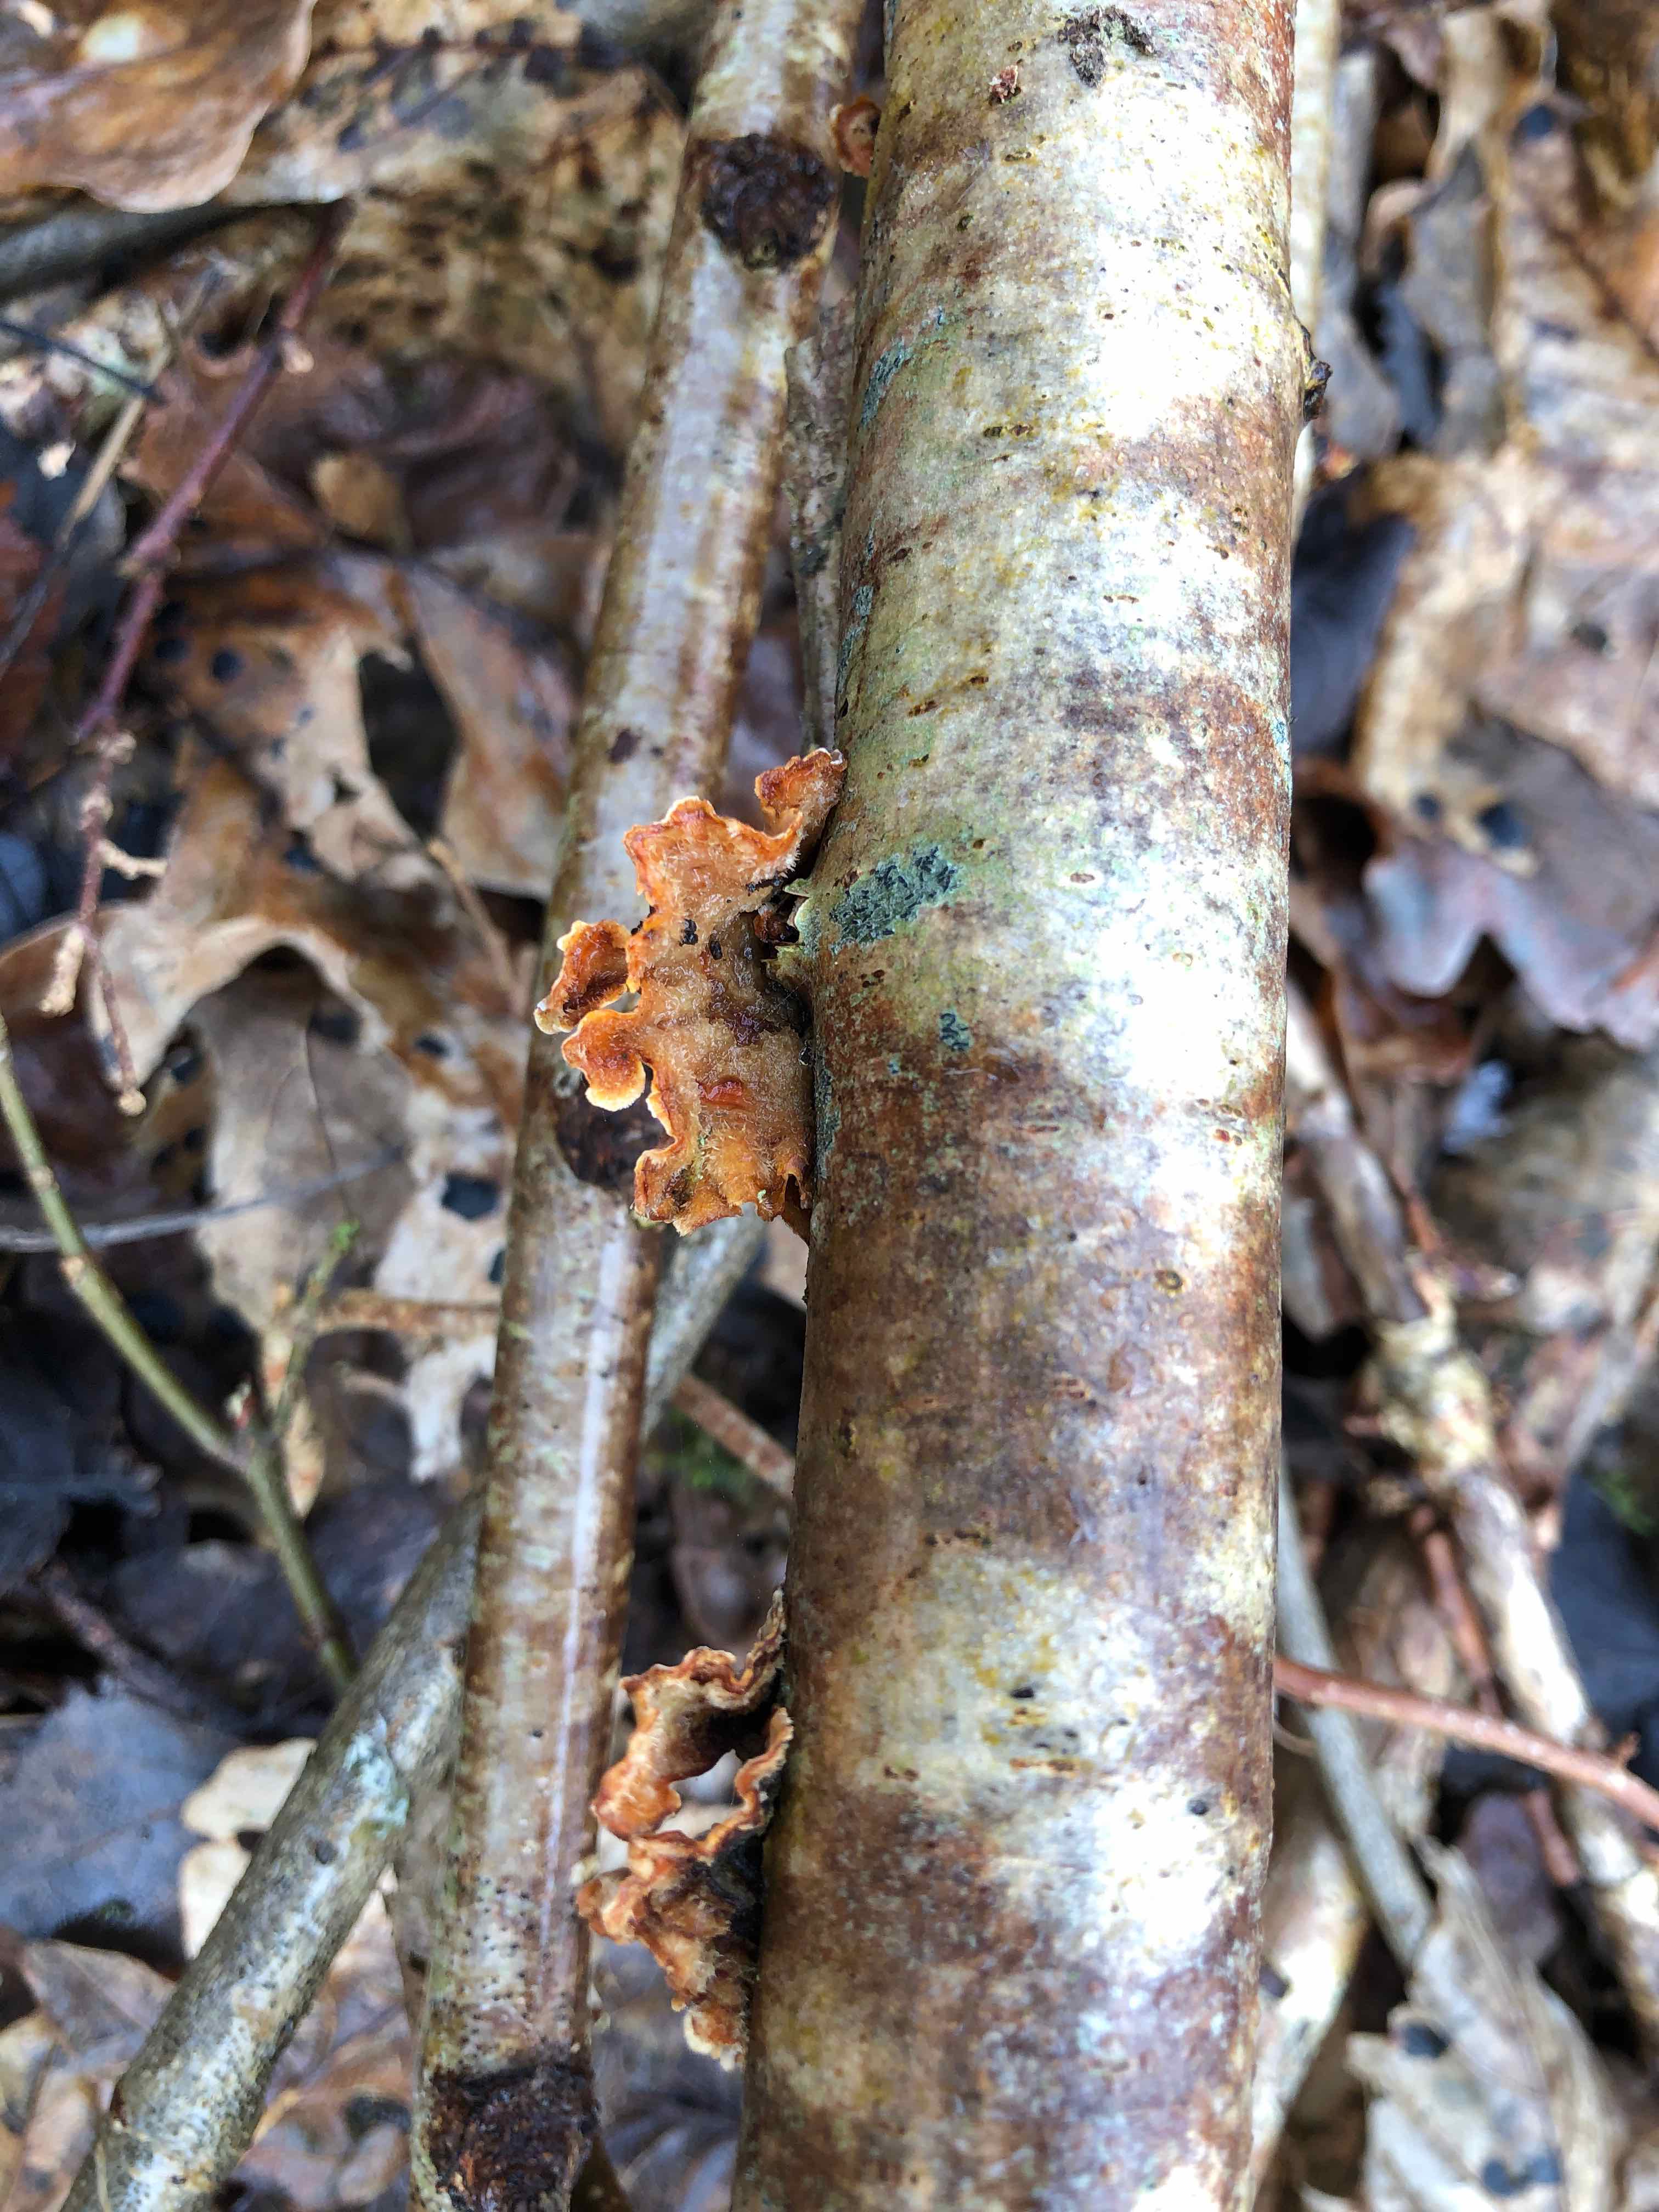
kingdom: Fungi
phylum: Basidiomycota
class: Agaricomycetes
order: Russulales
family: Stereaceae
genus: Stereum
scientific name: Stereum hirsutum
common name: håret lædersvamp
